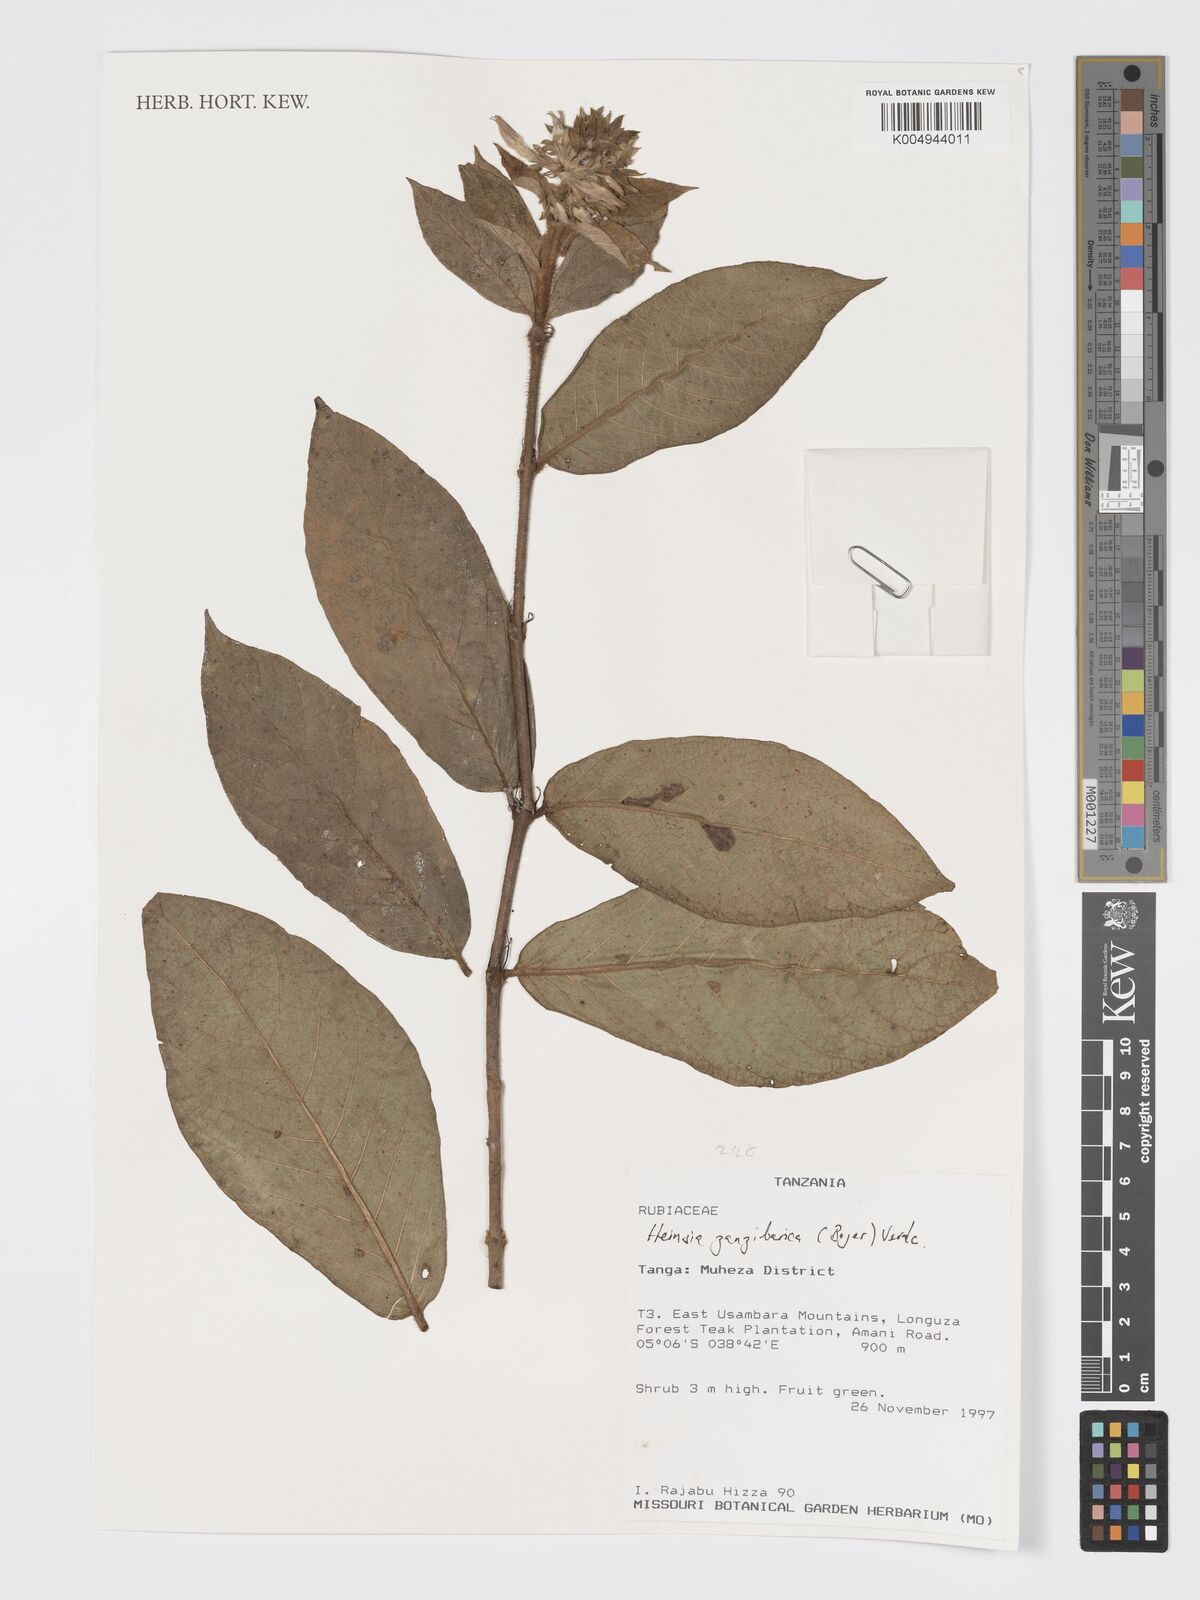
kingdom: Plantae
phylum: Tracheophyta
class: Magnoliopsida
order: Gentianales
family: Rubiaceae
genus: Heinsia
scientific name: Heinsia zanzibarica
